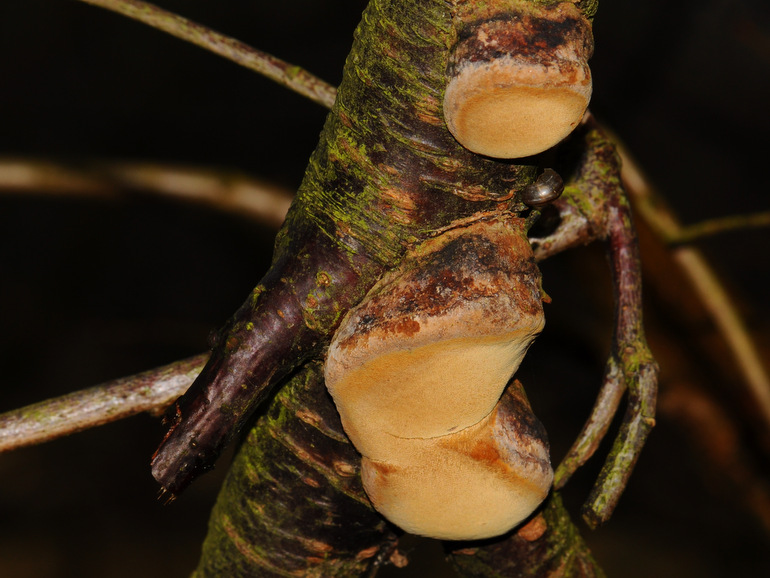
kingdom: Fungi
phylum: Basidiomycota
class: Agaricomycetes
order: Hymenochaetales
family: Hymenochaetaceae
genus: Phellinus
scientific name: Phellinus pomaceus
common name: blomme-ildporesvamp
